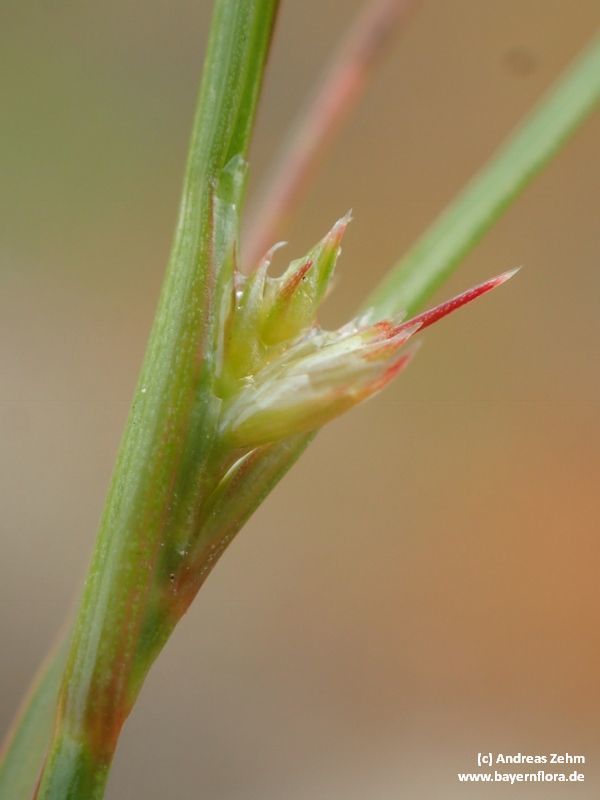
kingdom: Plantae
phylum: Tracheophyta
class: Liliopsida
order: Poales
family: Juncaceae
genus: Juncus
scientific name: Juncus tenuis
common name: Slender rush
